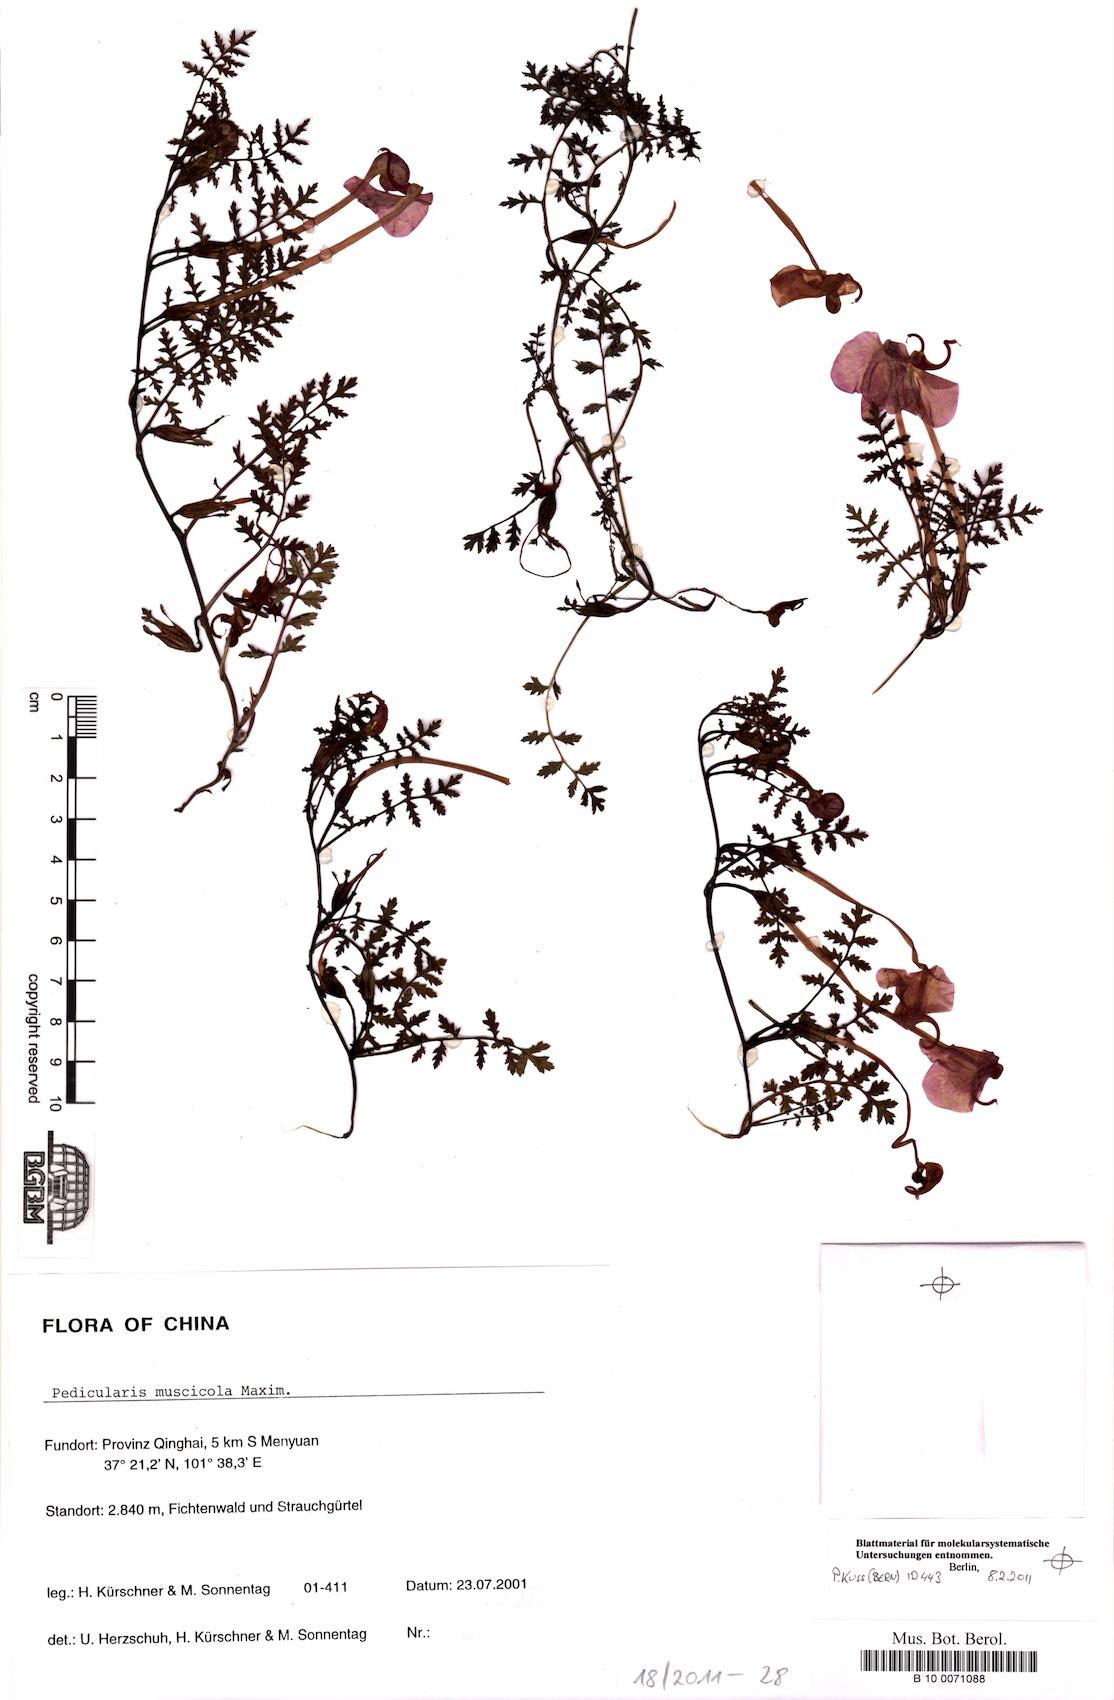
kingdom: Plantae
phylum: Tracheophyta
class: Magnoliopsida
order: Lamiales
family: Orobanchaceae
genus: Pedicularis
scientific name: Pedicularis muscicola
